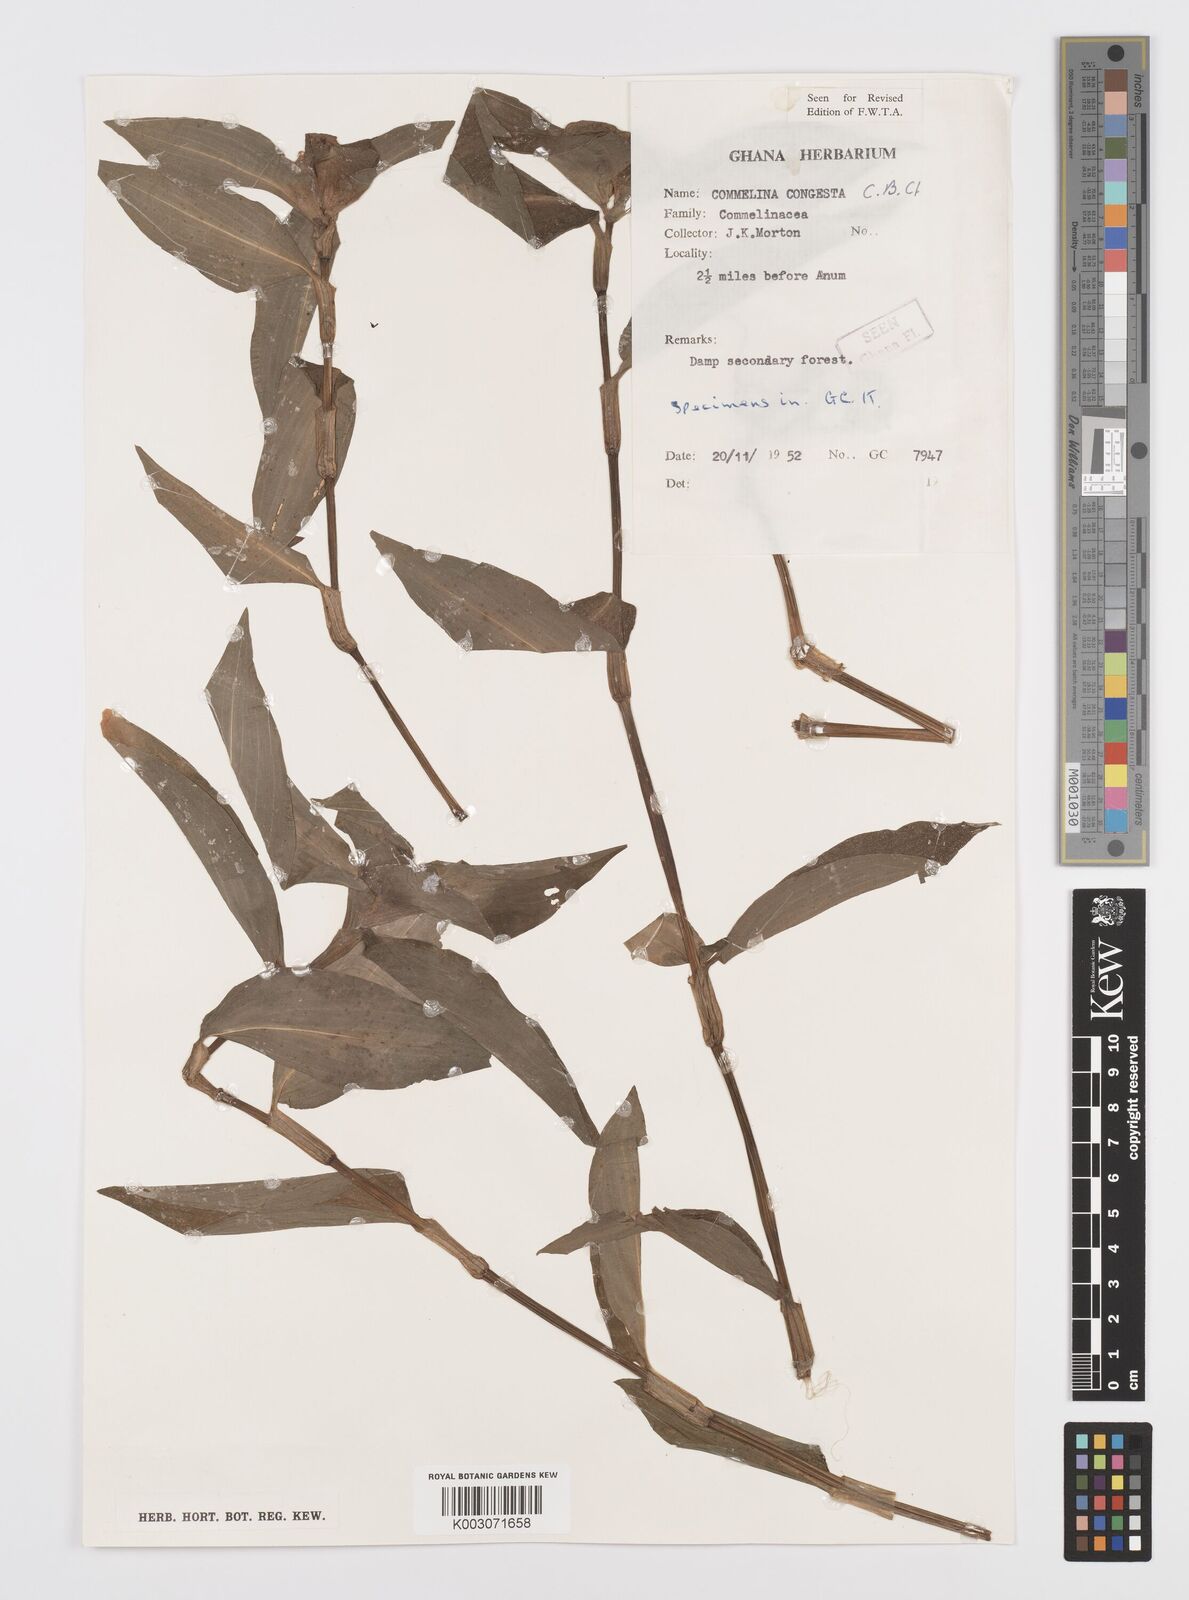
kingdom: Plantae
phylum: Tracheophyta
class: Liliopsida
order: Commelinales
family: Commelinaceae
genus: Commelina
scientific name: Commelina congesta
